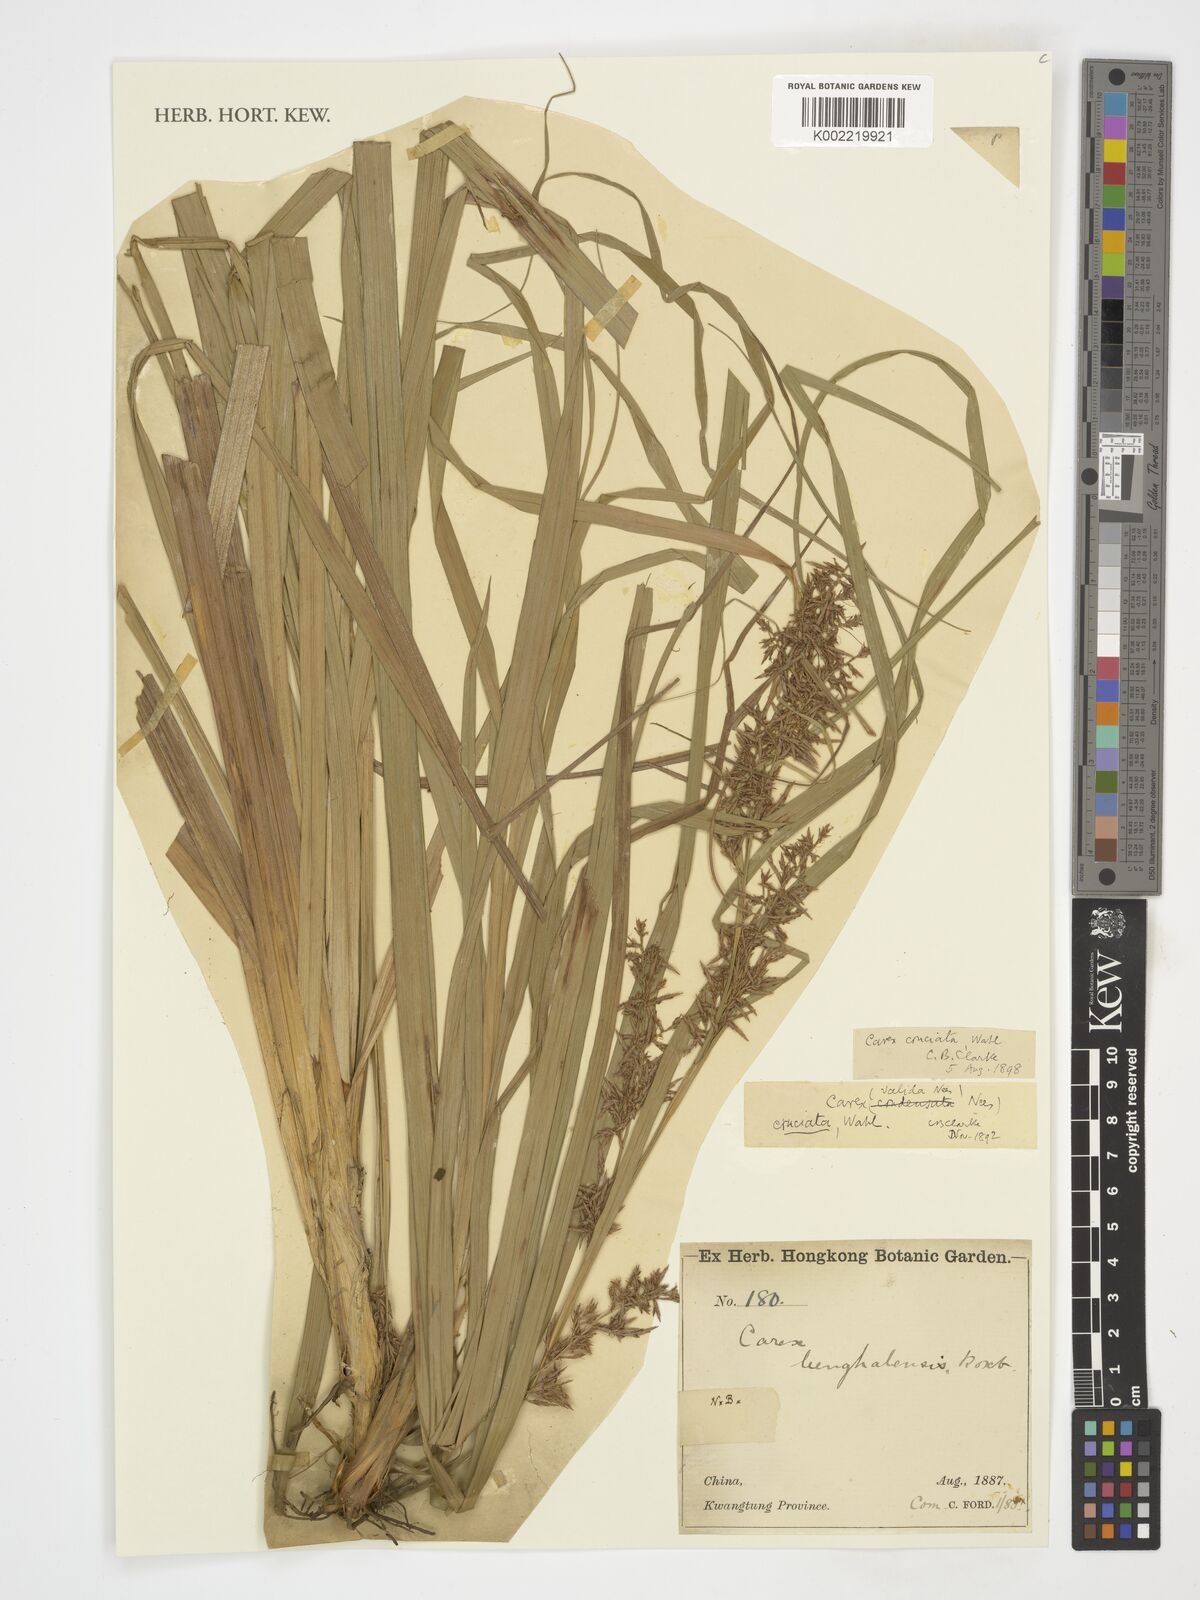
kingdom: Plantae
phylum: Tracheophyta
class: Liliopsida
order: Poales
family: Cyperaceae
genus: Carex
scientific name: Carex cruciata
